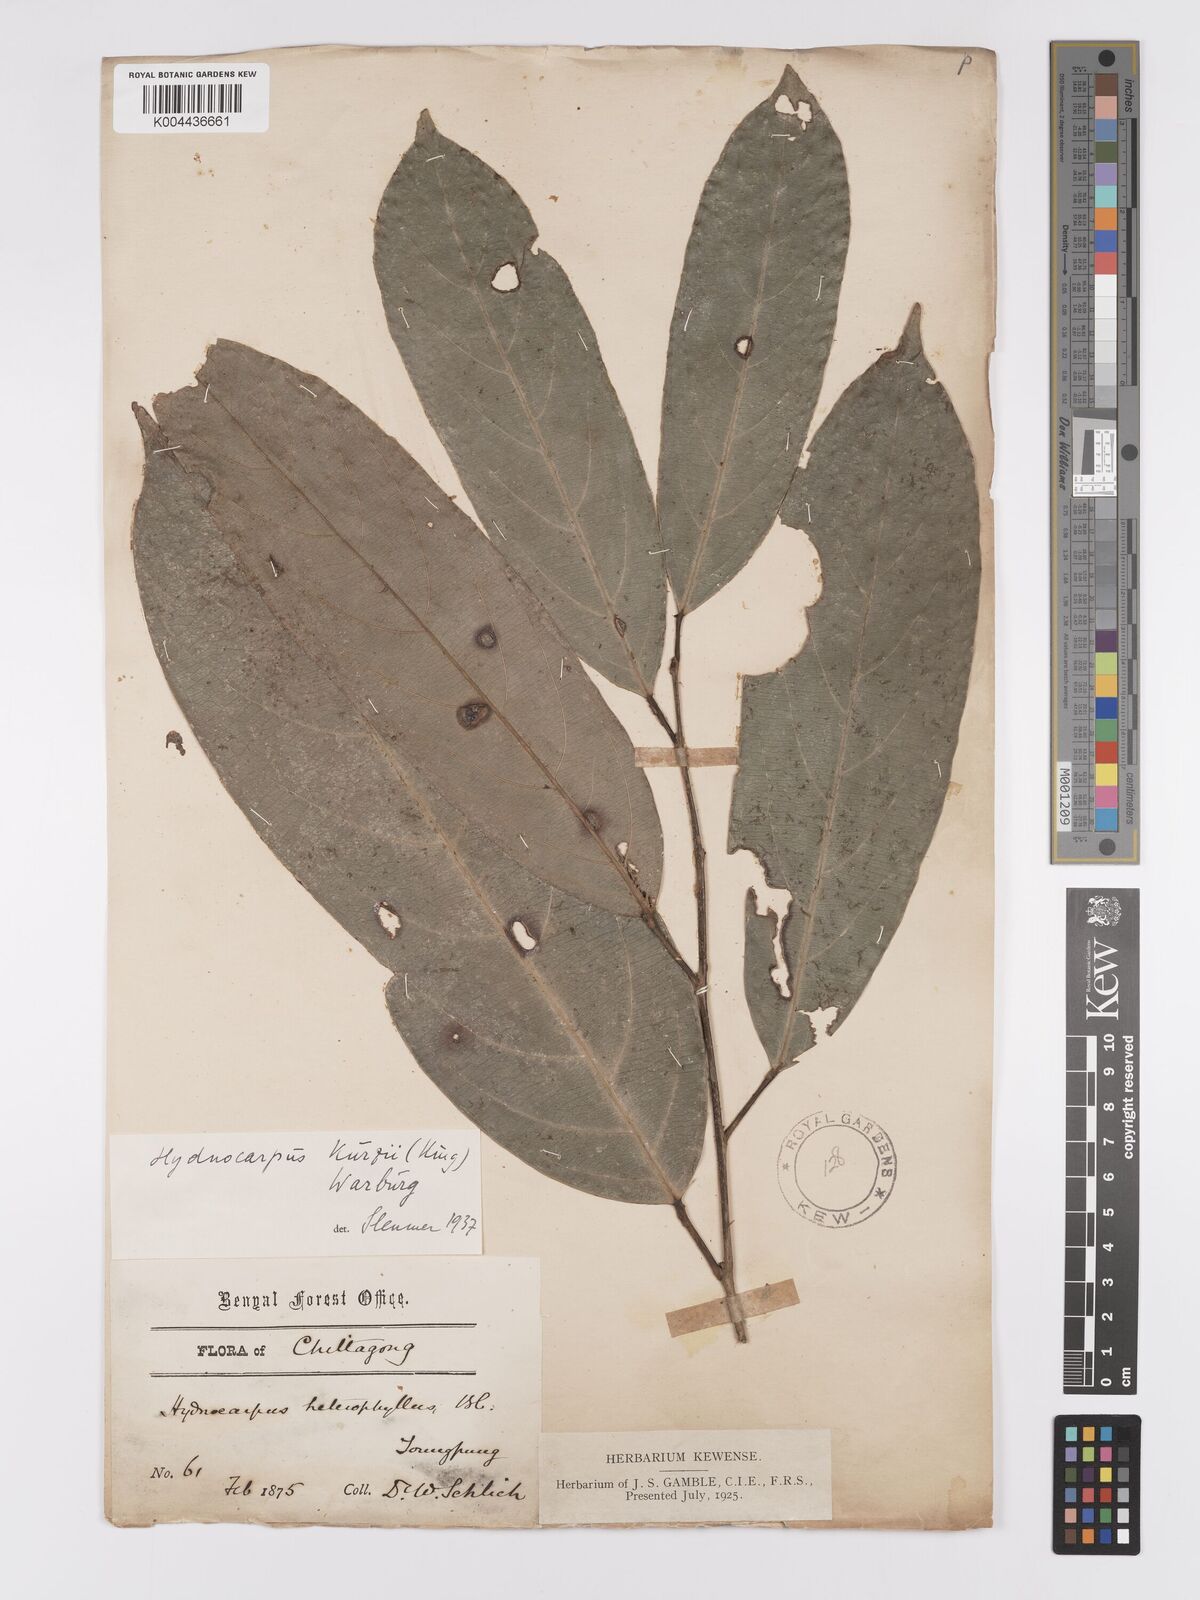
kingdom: Plantae
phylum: Tracheophyta
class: Magnoliopsida
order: Malpighiales
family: Achariaceae
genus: Hydnocarpus
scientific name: Hydnocarpus kurzii
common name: Chaulmoogra
